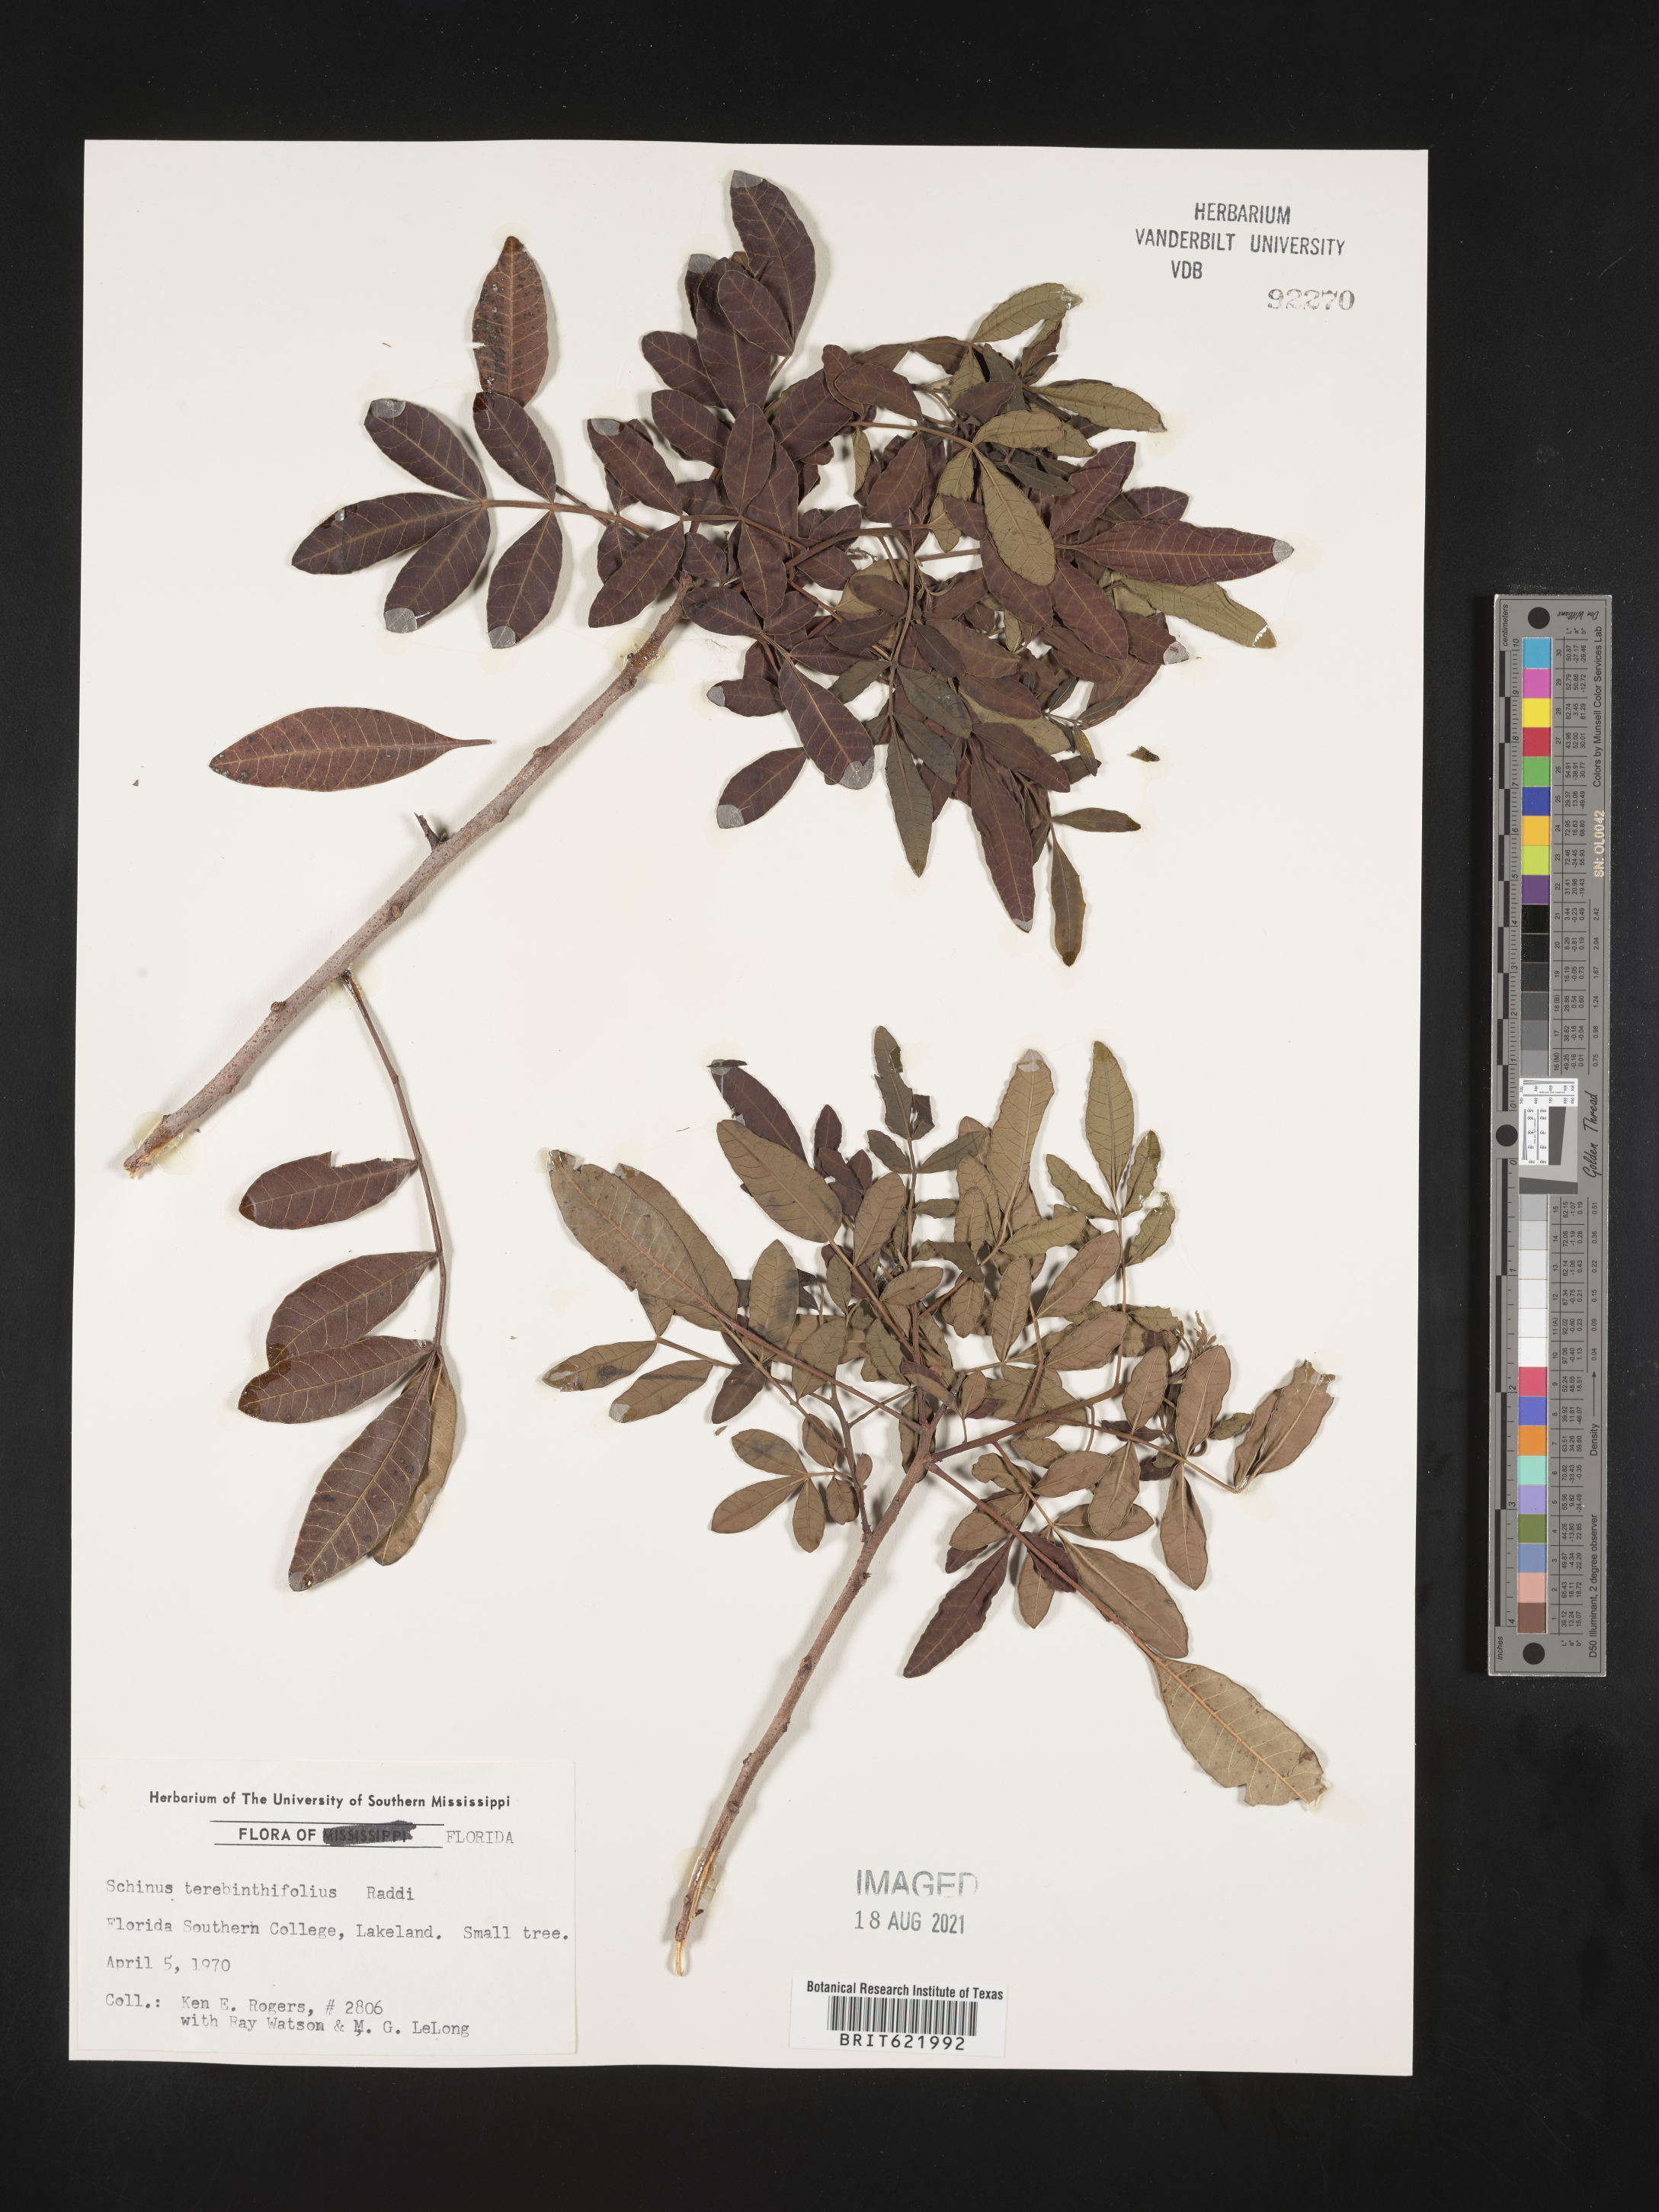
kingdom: Plantae
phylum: Tracheophyta
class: Magnoliopsida
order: Sapindales
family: Anacardiaceae
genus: Schinus
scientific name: Schinus terebinthifolia
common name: Brazilian peppertree
